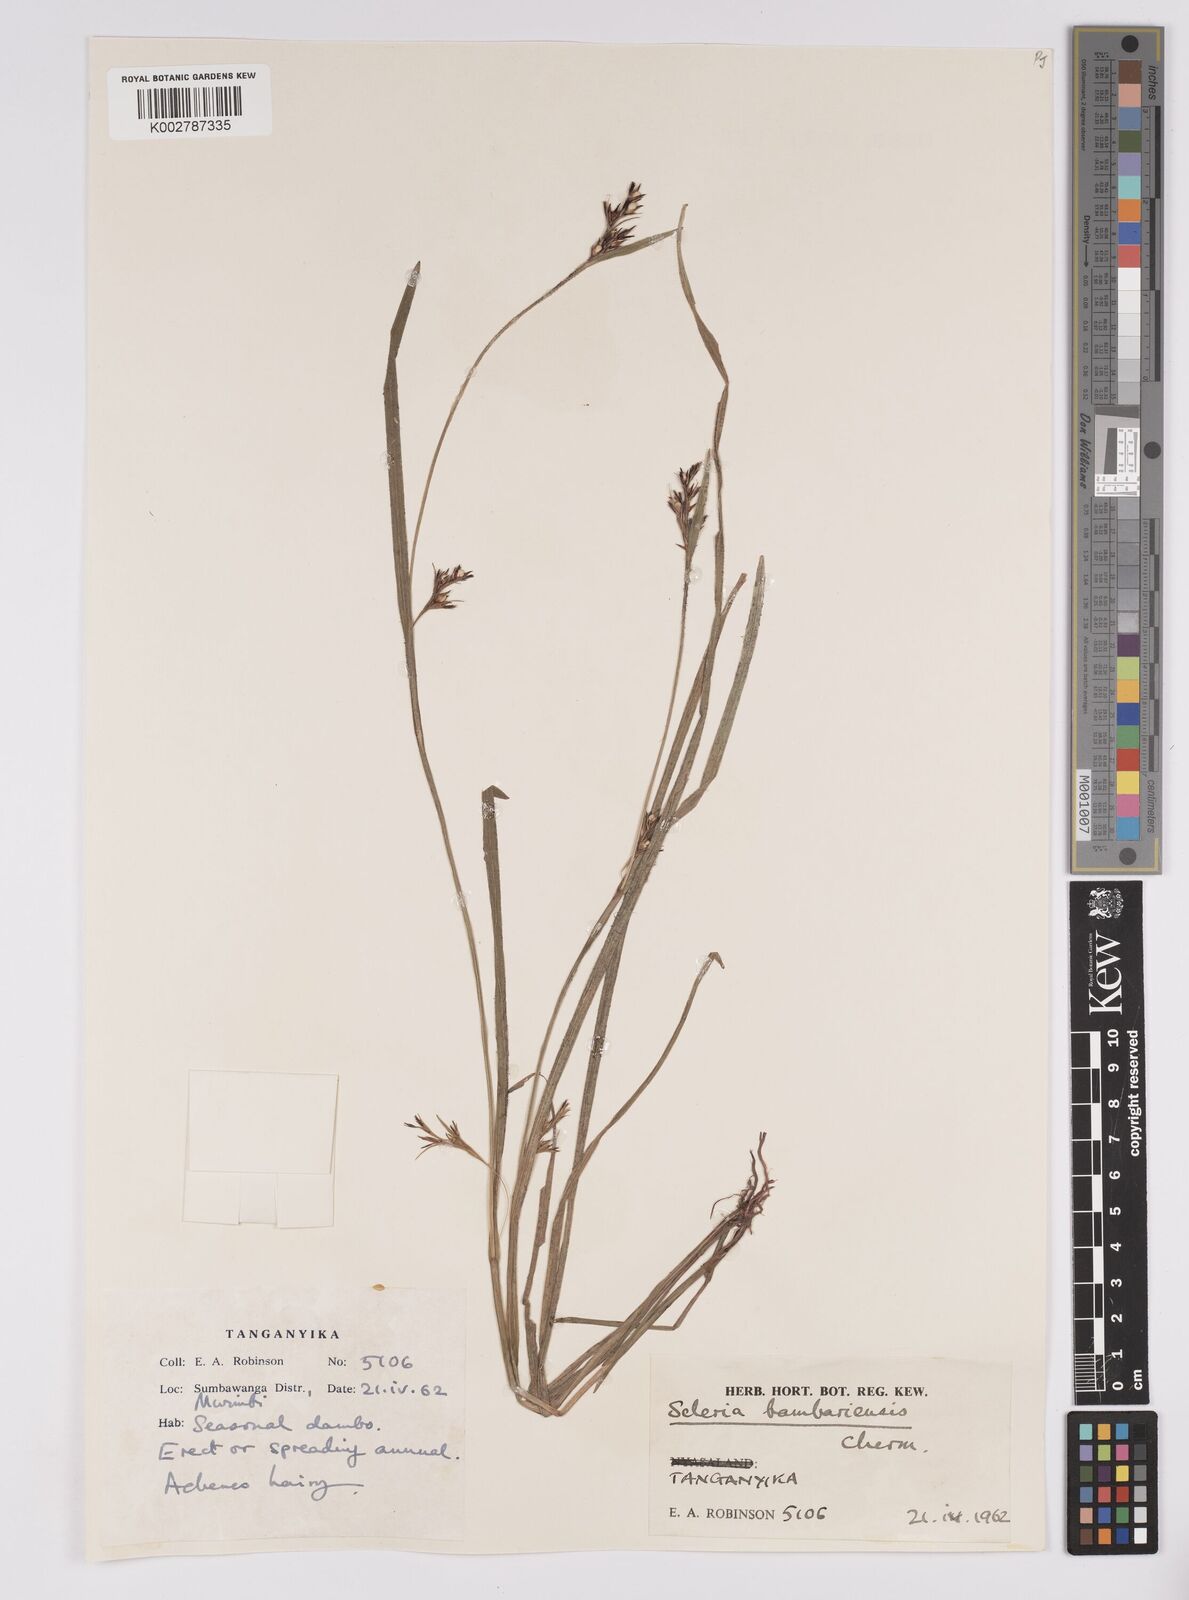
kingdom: Plantae
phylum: Tracheophyta
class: Liliopsida
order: Poales
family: Cyperaceae
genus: Scleria
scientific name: Scleria bambariensis
